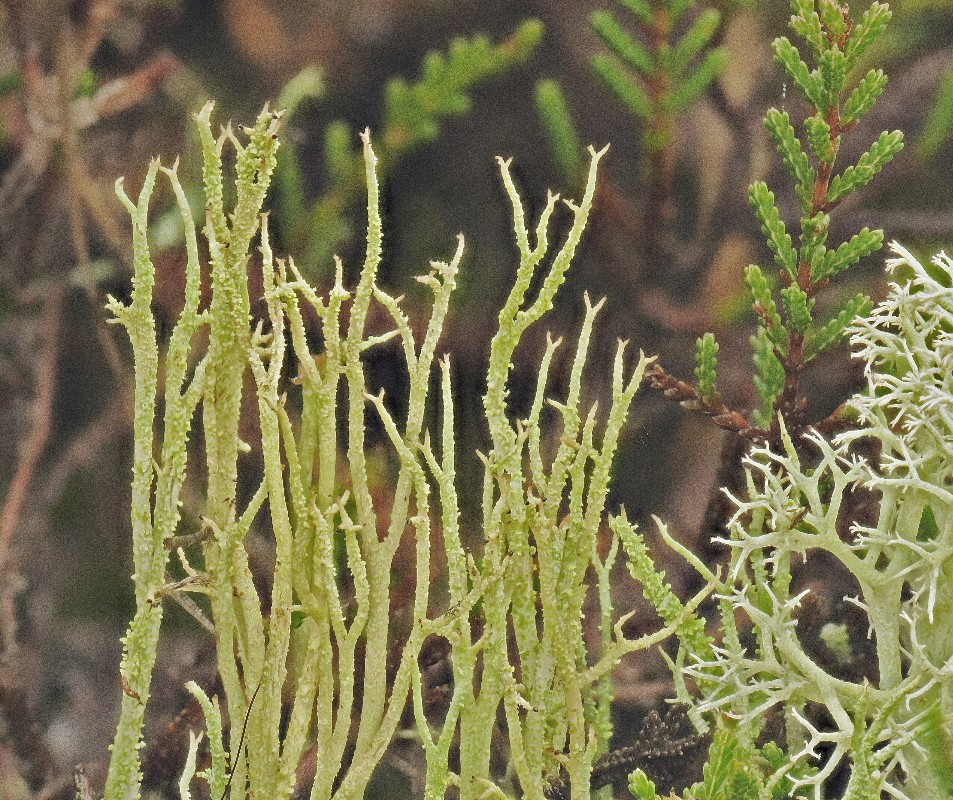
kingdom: Fungi
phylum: Ascomycota
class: Lecanoromycetes
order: Lecanorales
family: Cladoniaceae
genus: Cladonia
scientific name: Cladonia scabriuscula
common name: ru bægerlav
